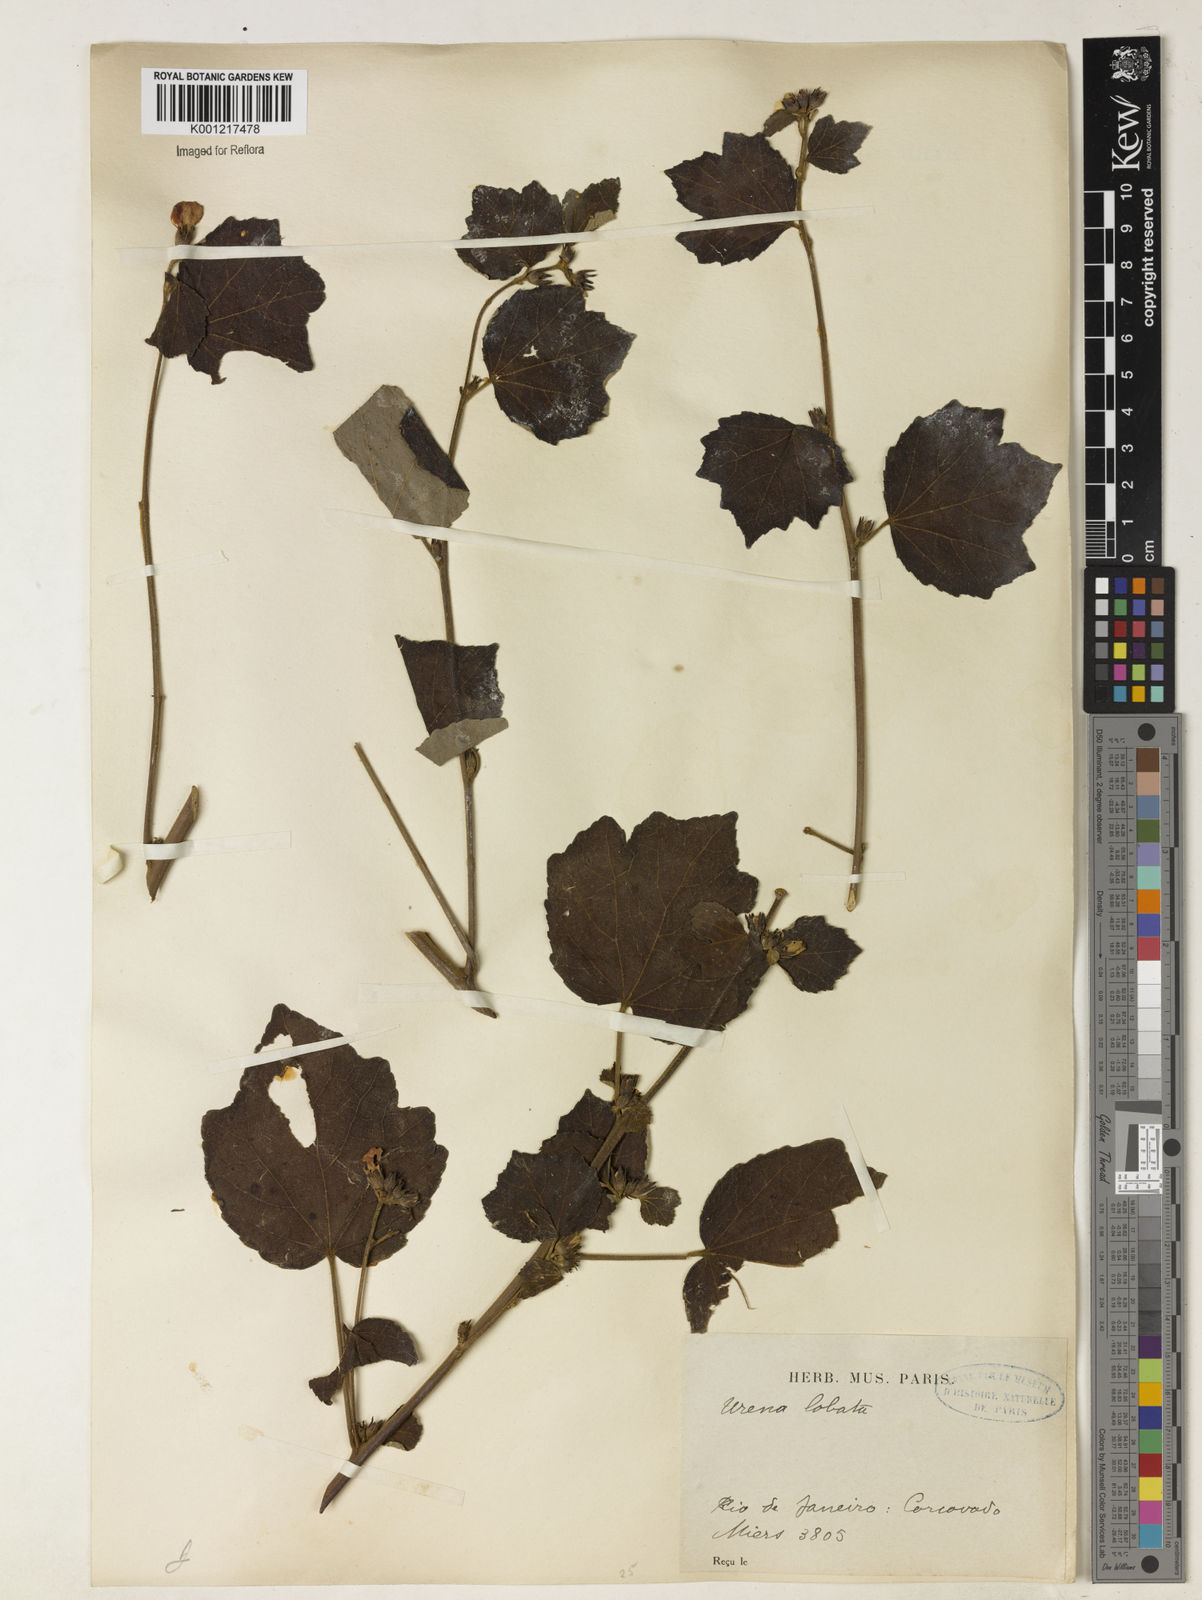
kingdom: Plantae
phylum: Tracheophyta
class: Magnoliopsida
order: Malvales
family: Malvaceae
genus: Urena
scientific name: Urena lobata
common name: Caesarweed
